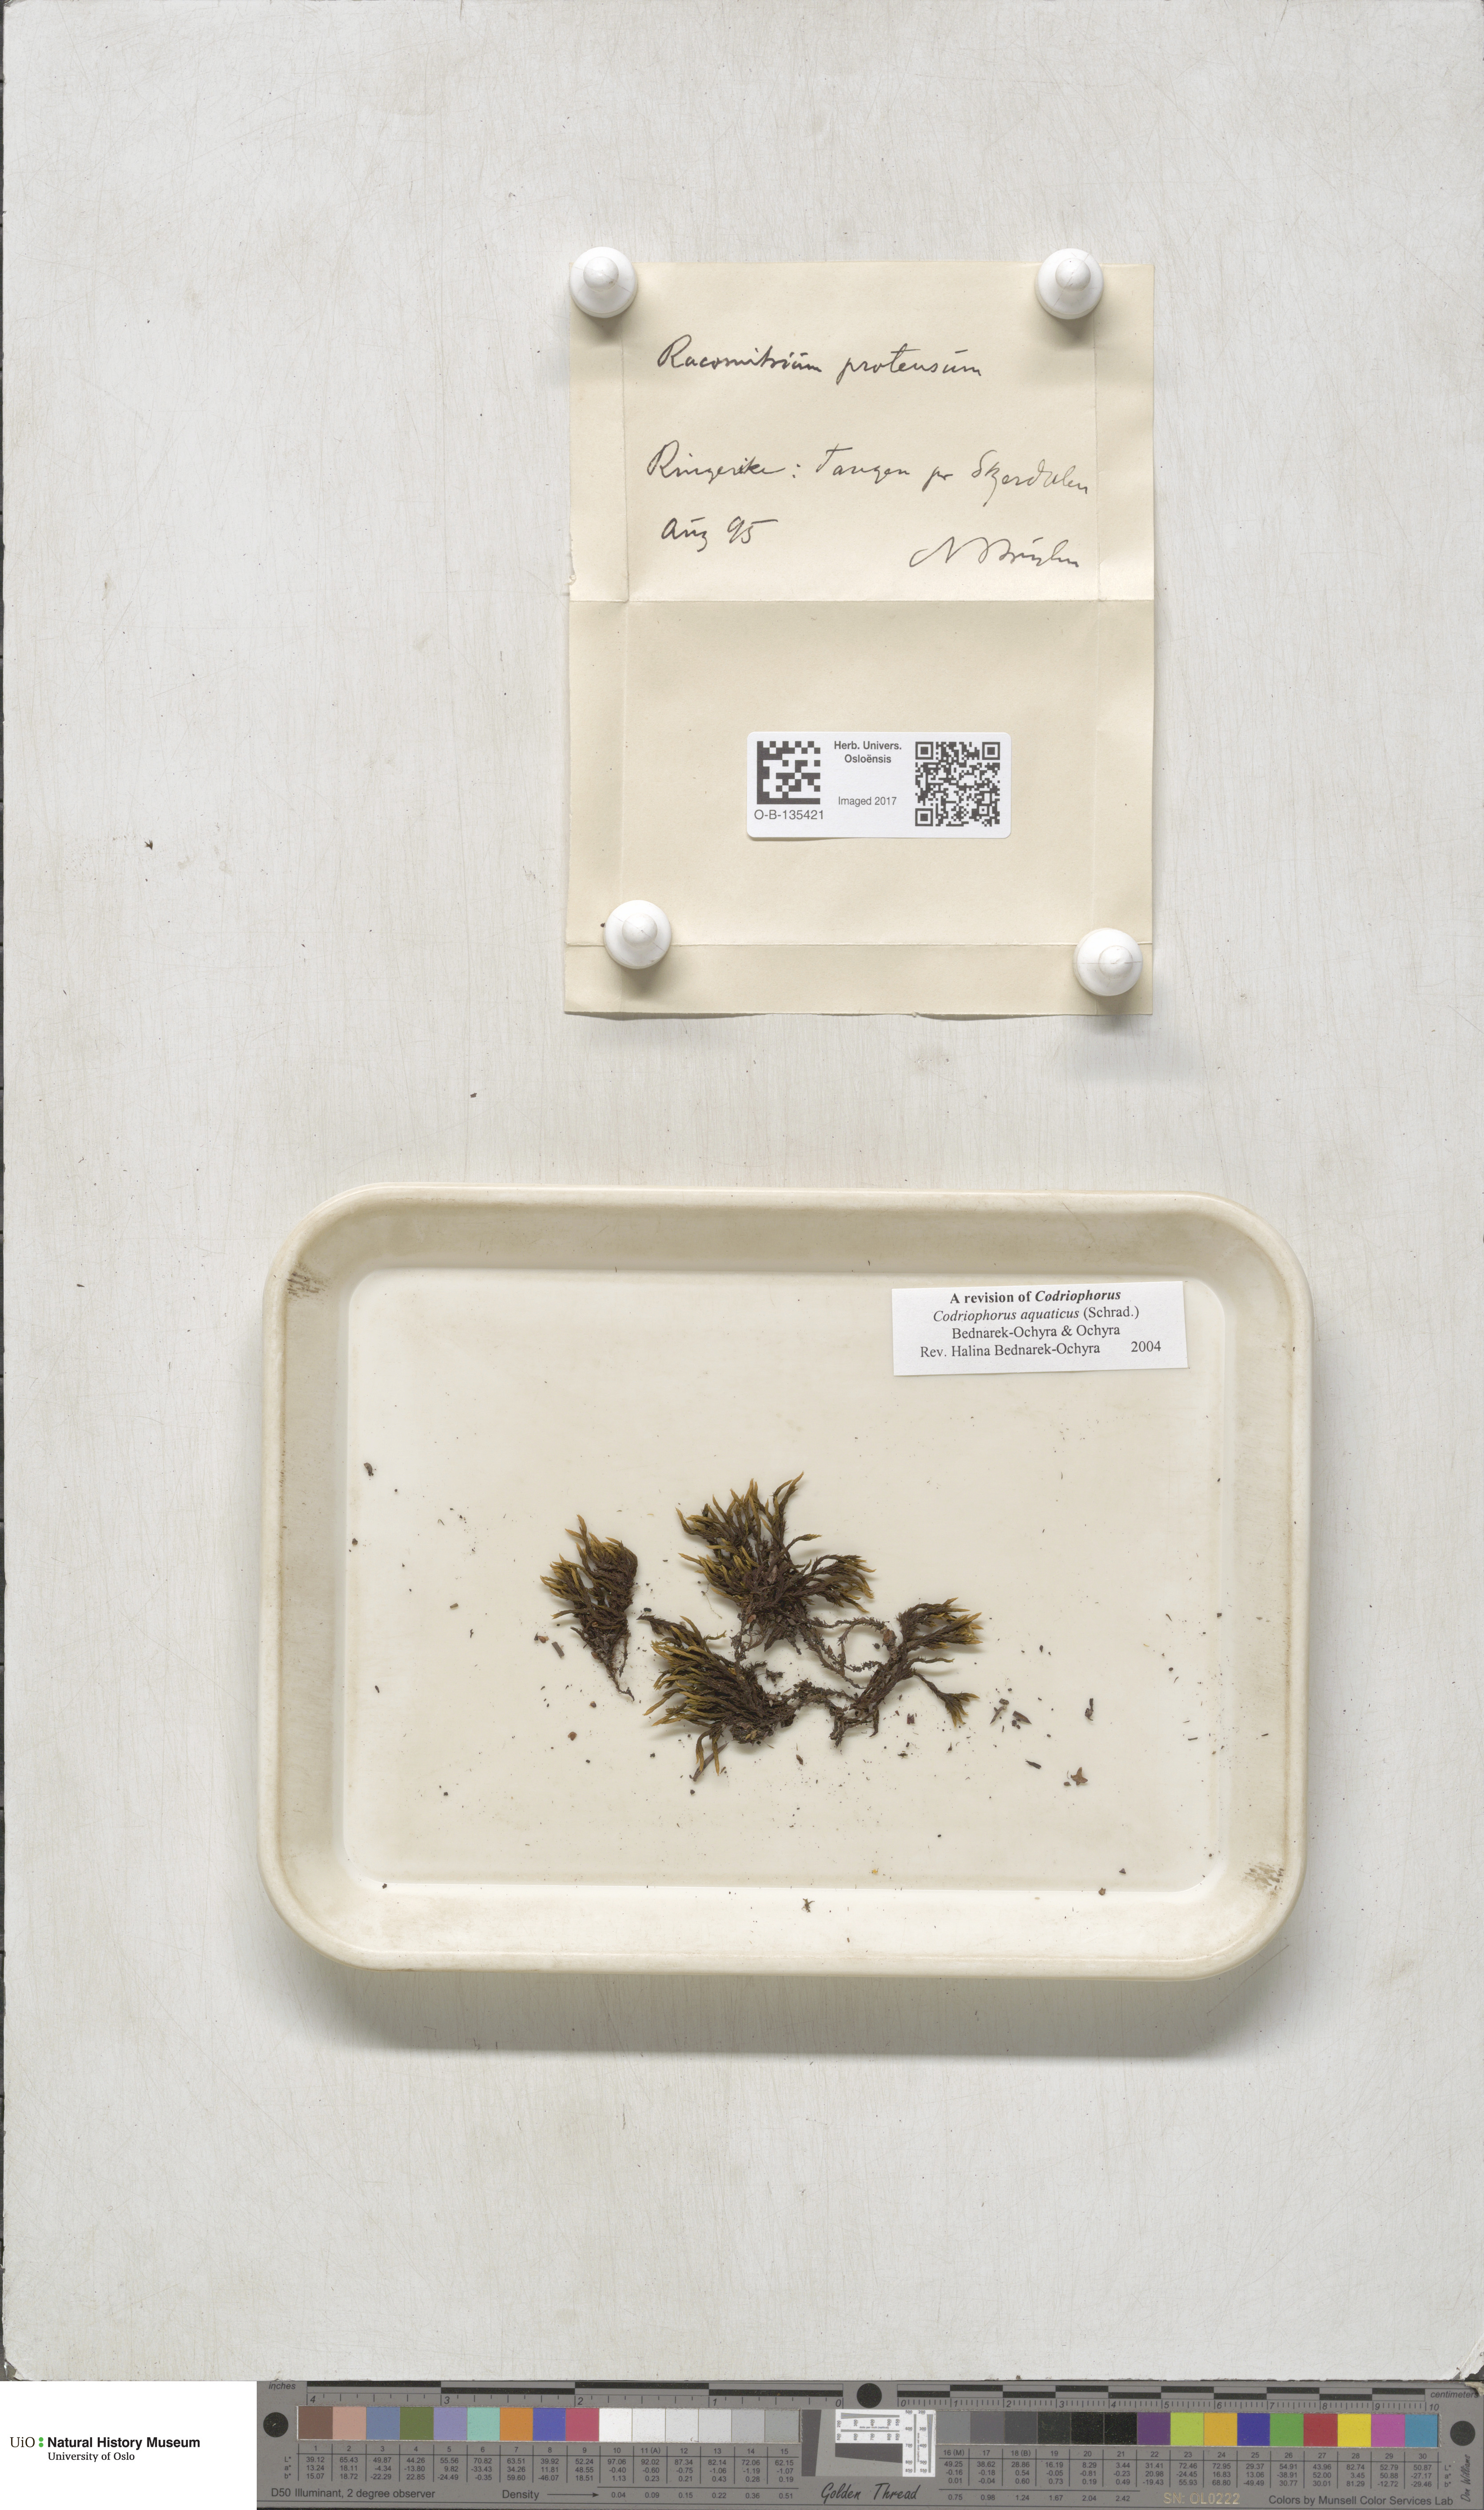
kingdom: Plantae
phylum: Bryophyta
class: Bryopsida
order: Grimmiales
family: Grimmiaceae
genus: Codriophorus
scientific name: Codriophorus aquaticus
